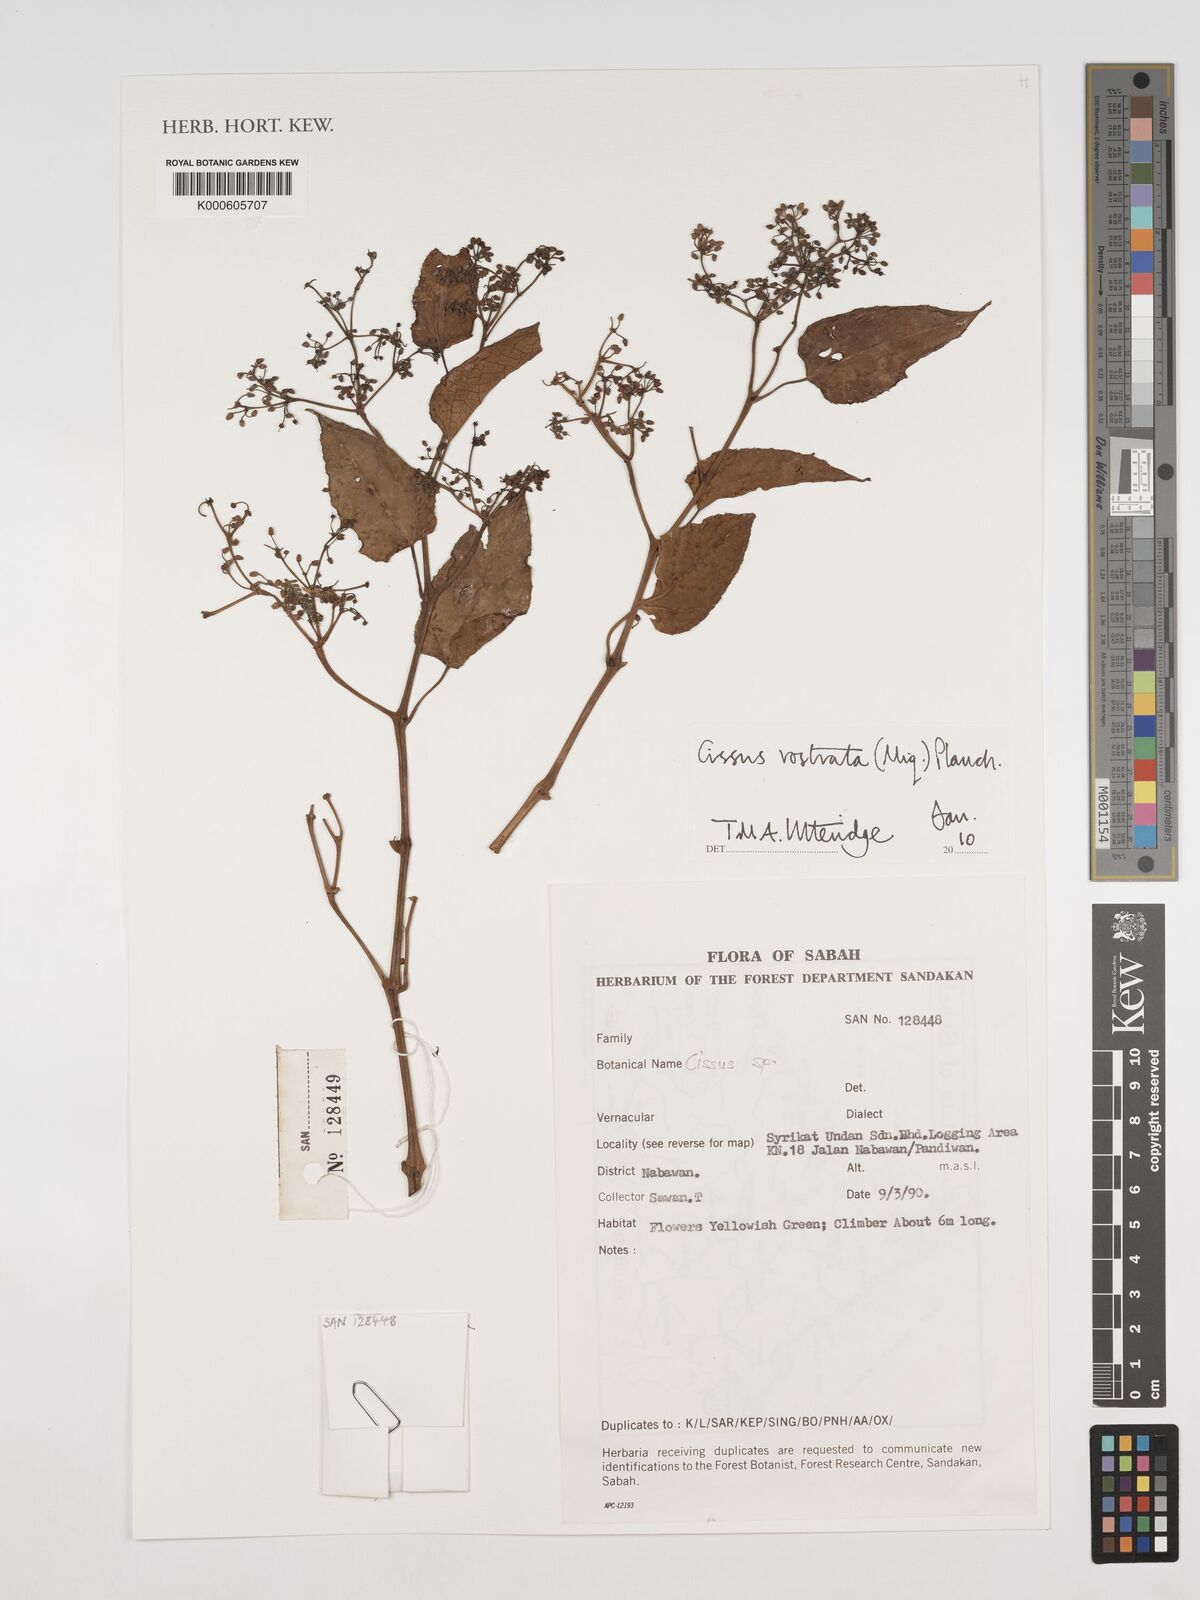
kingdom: Plantae
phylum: Tracheophyta
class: Magnoliopsida
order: Vitales
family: Vitaceae
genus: Cissus
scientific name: Cissus rostrata
